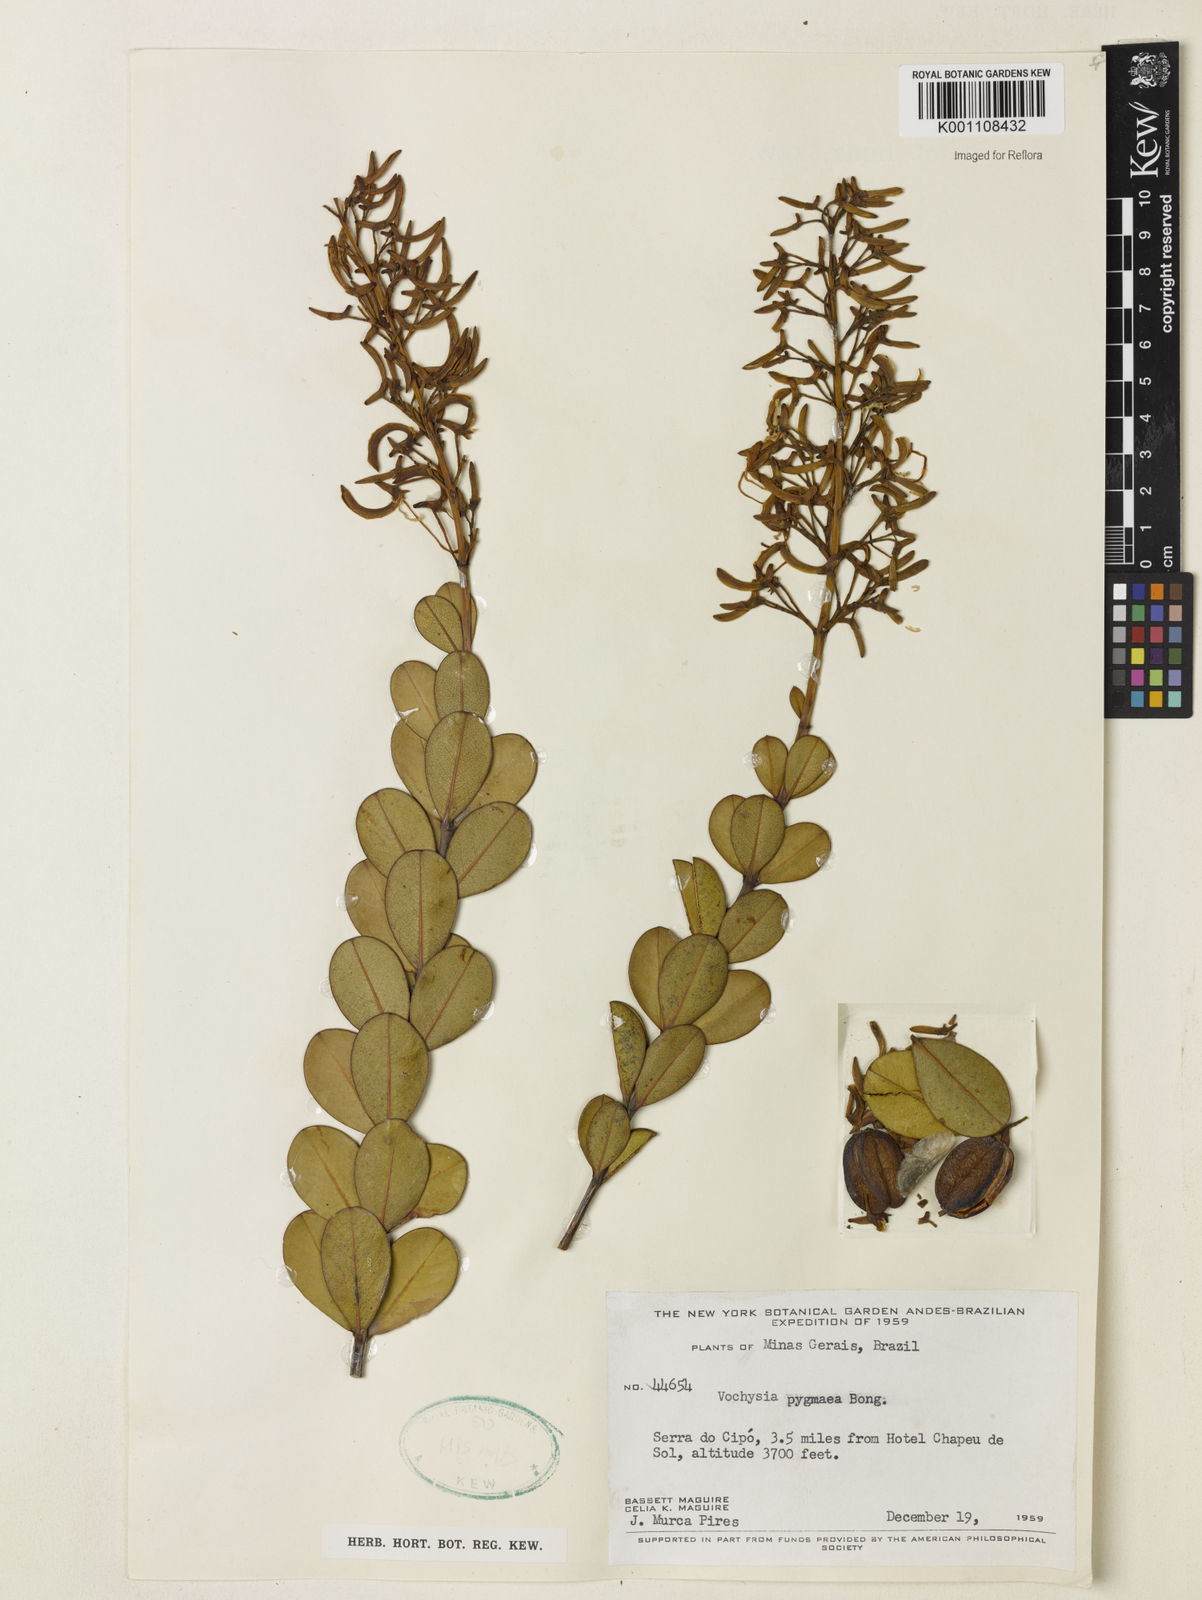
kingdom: Plantae
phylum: Tracheophyta
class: Magnoliopsida
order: Myrtales
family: Vochysiaceae
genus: Vochysia
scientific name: Vochysia pygmaea
